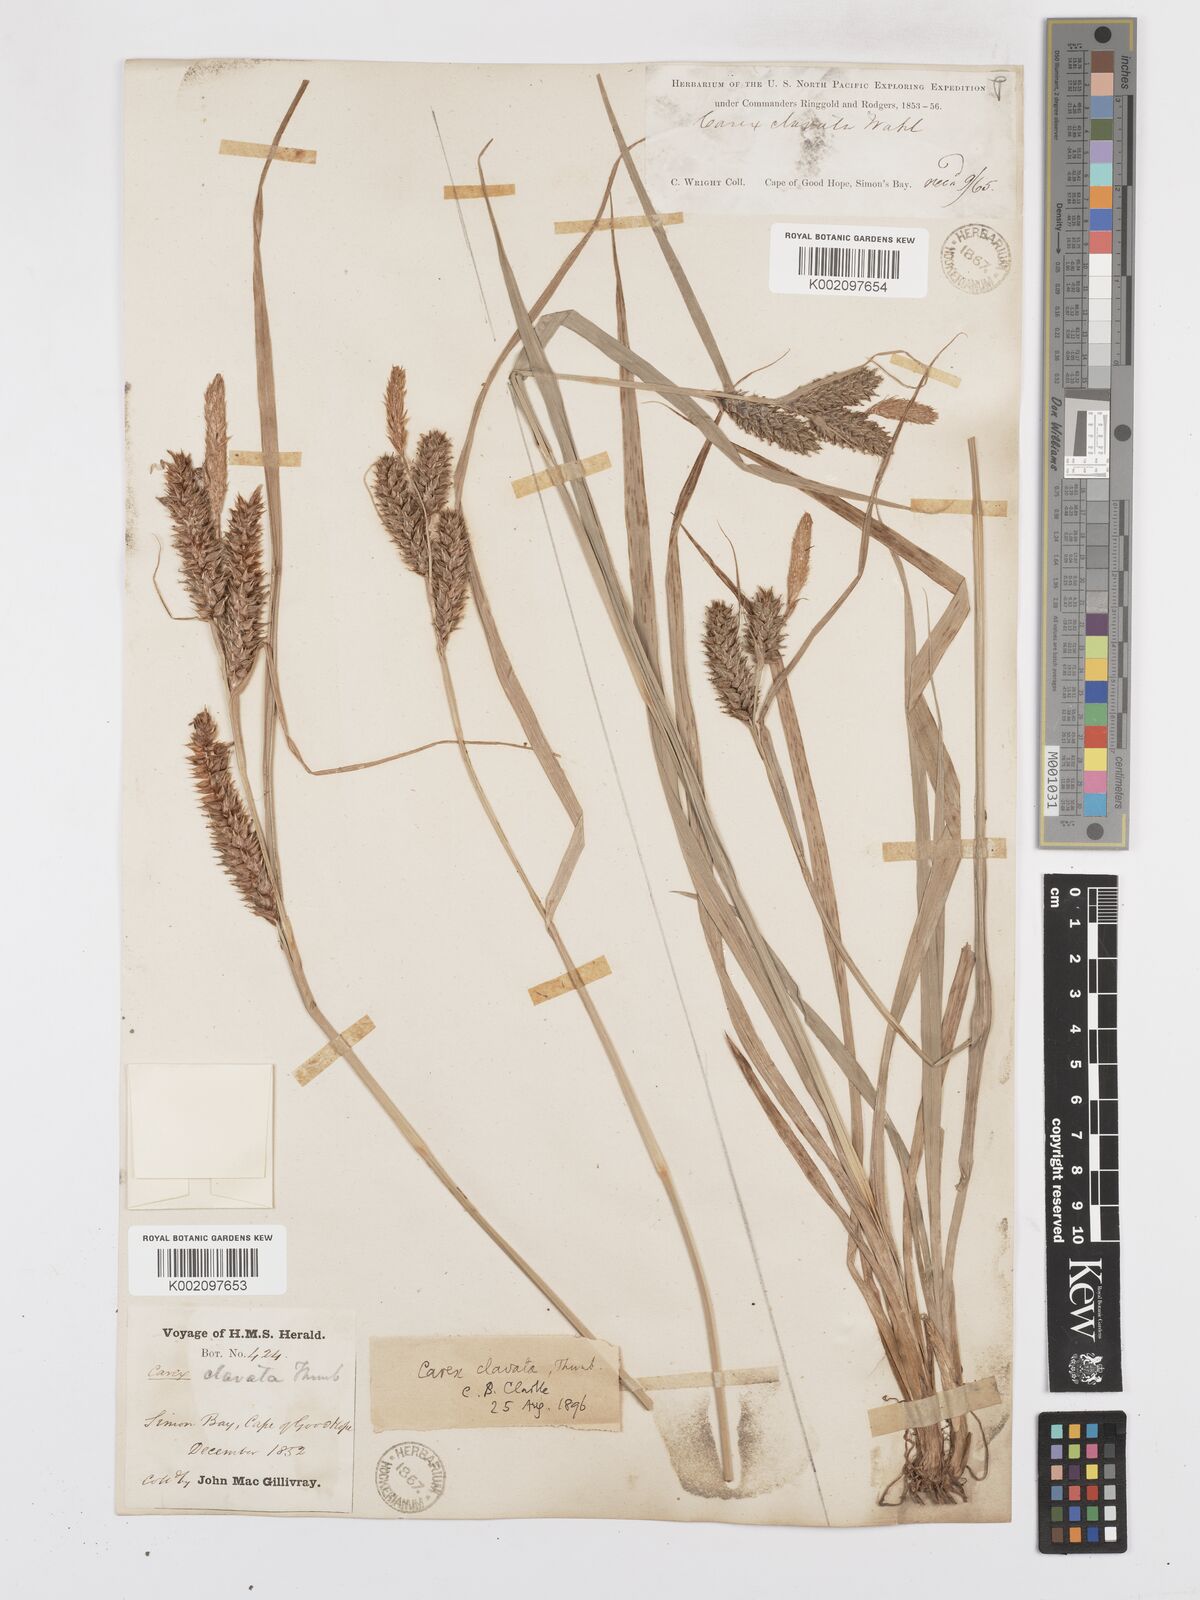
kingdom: Plantae
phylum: Tracheophyta
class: Liliopsida
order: Poales
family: Cyperaceae
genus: Carex
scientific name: Carex clavata
